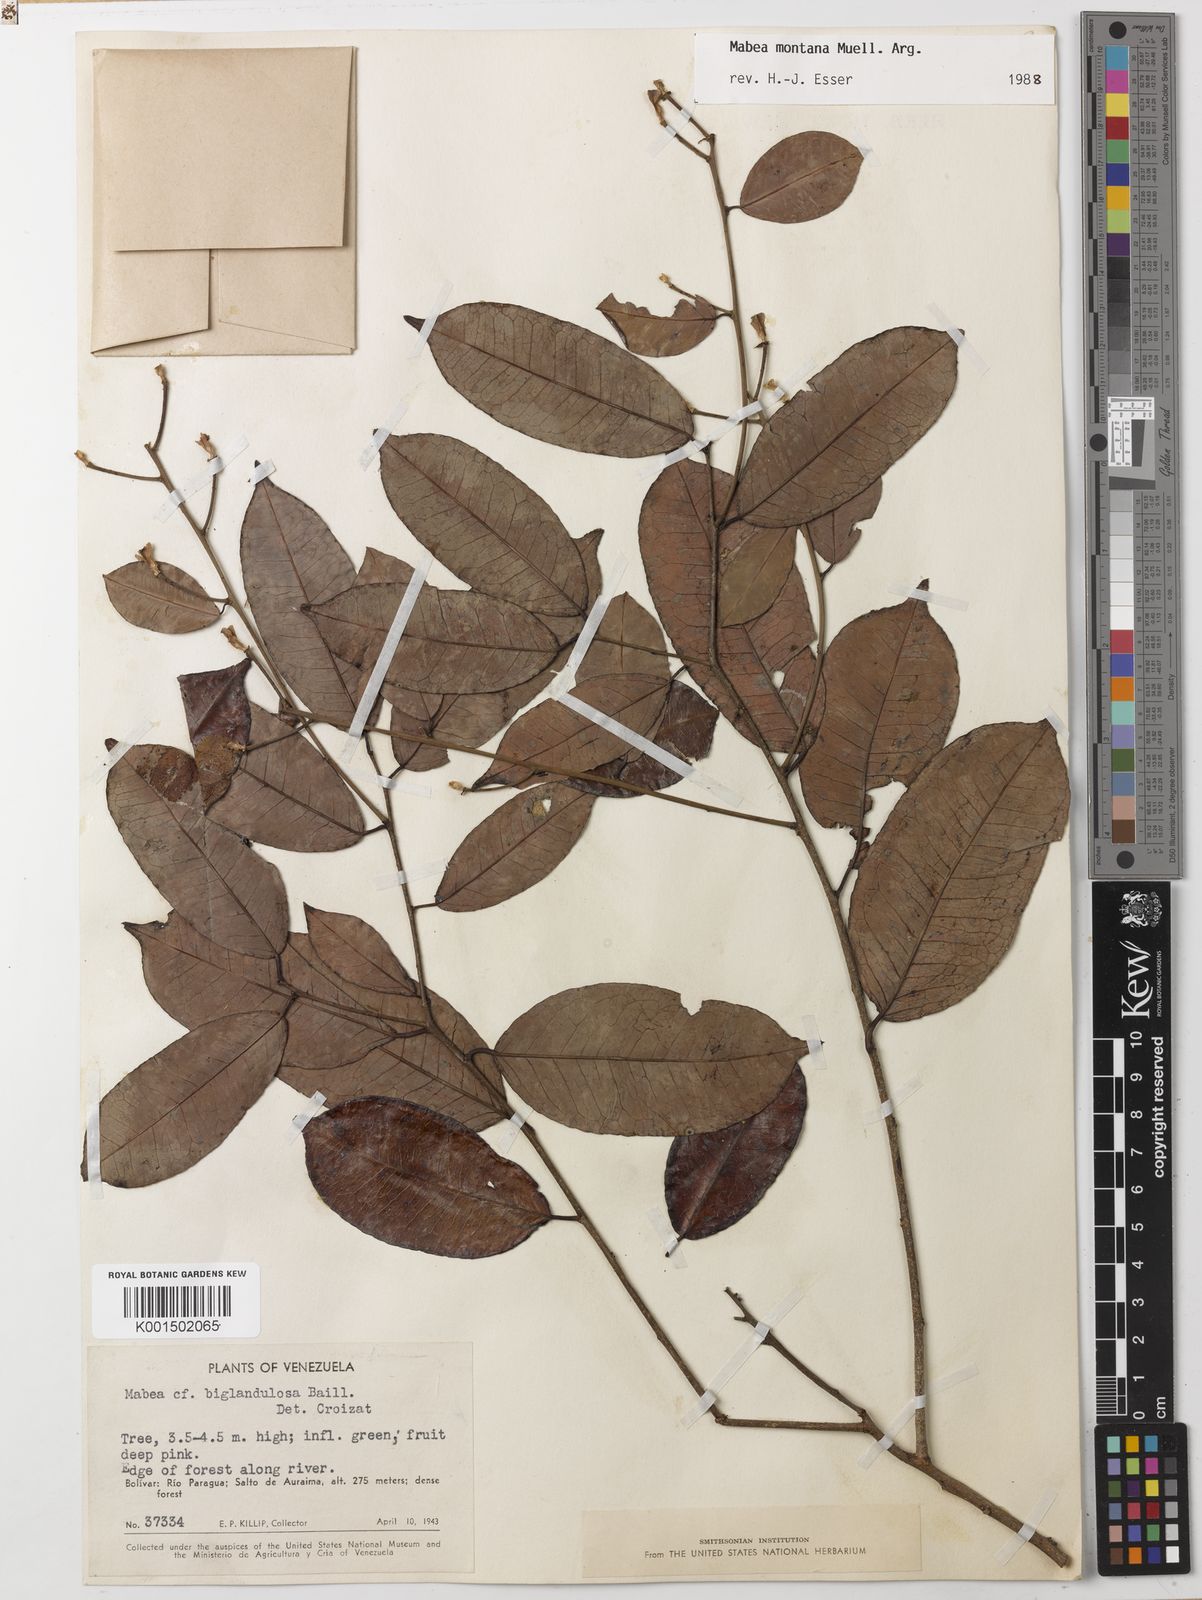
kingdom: Plantae
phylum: Tracheophyta
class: Magnoliopsida
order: Malpighiales
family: Euphorbiaceae
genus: Mabea
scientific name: Mabea montana
